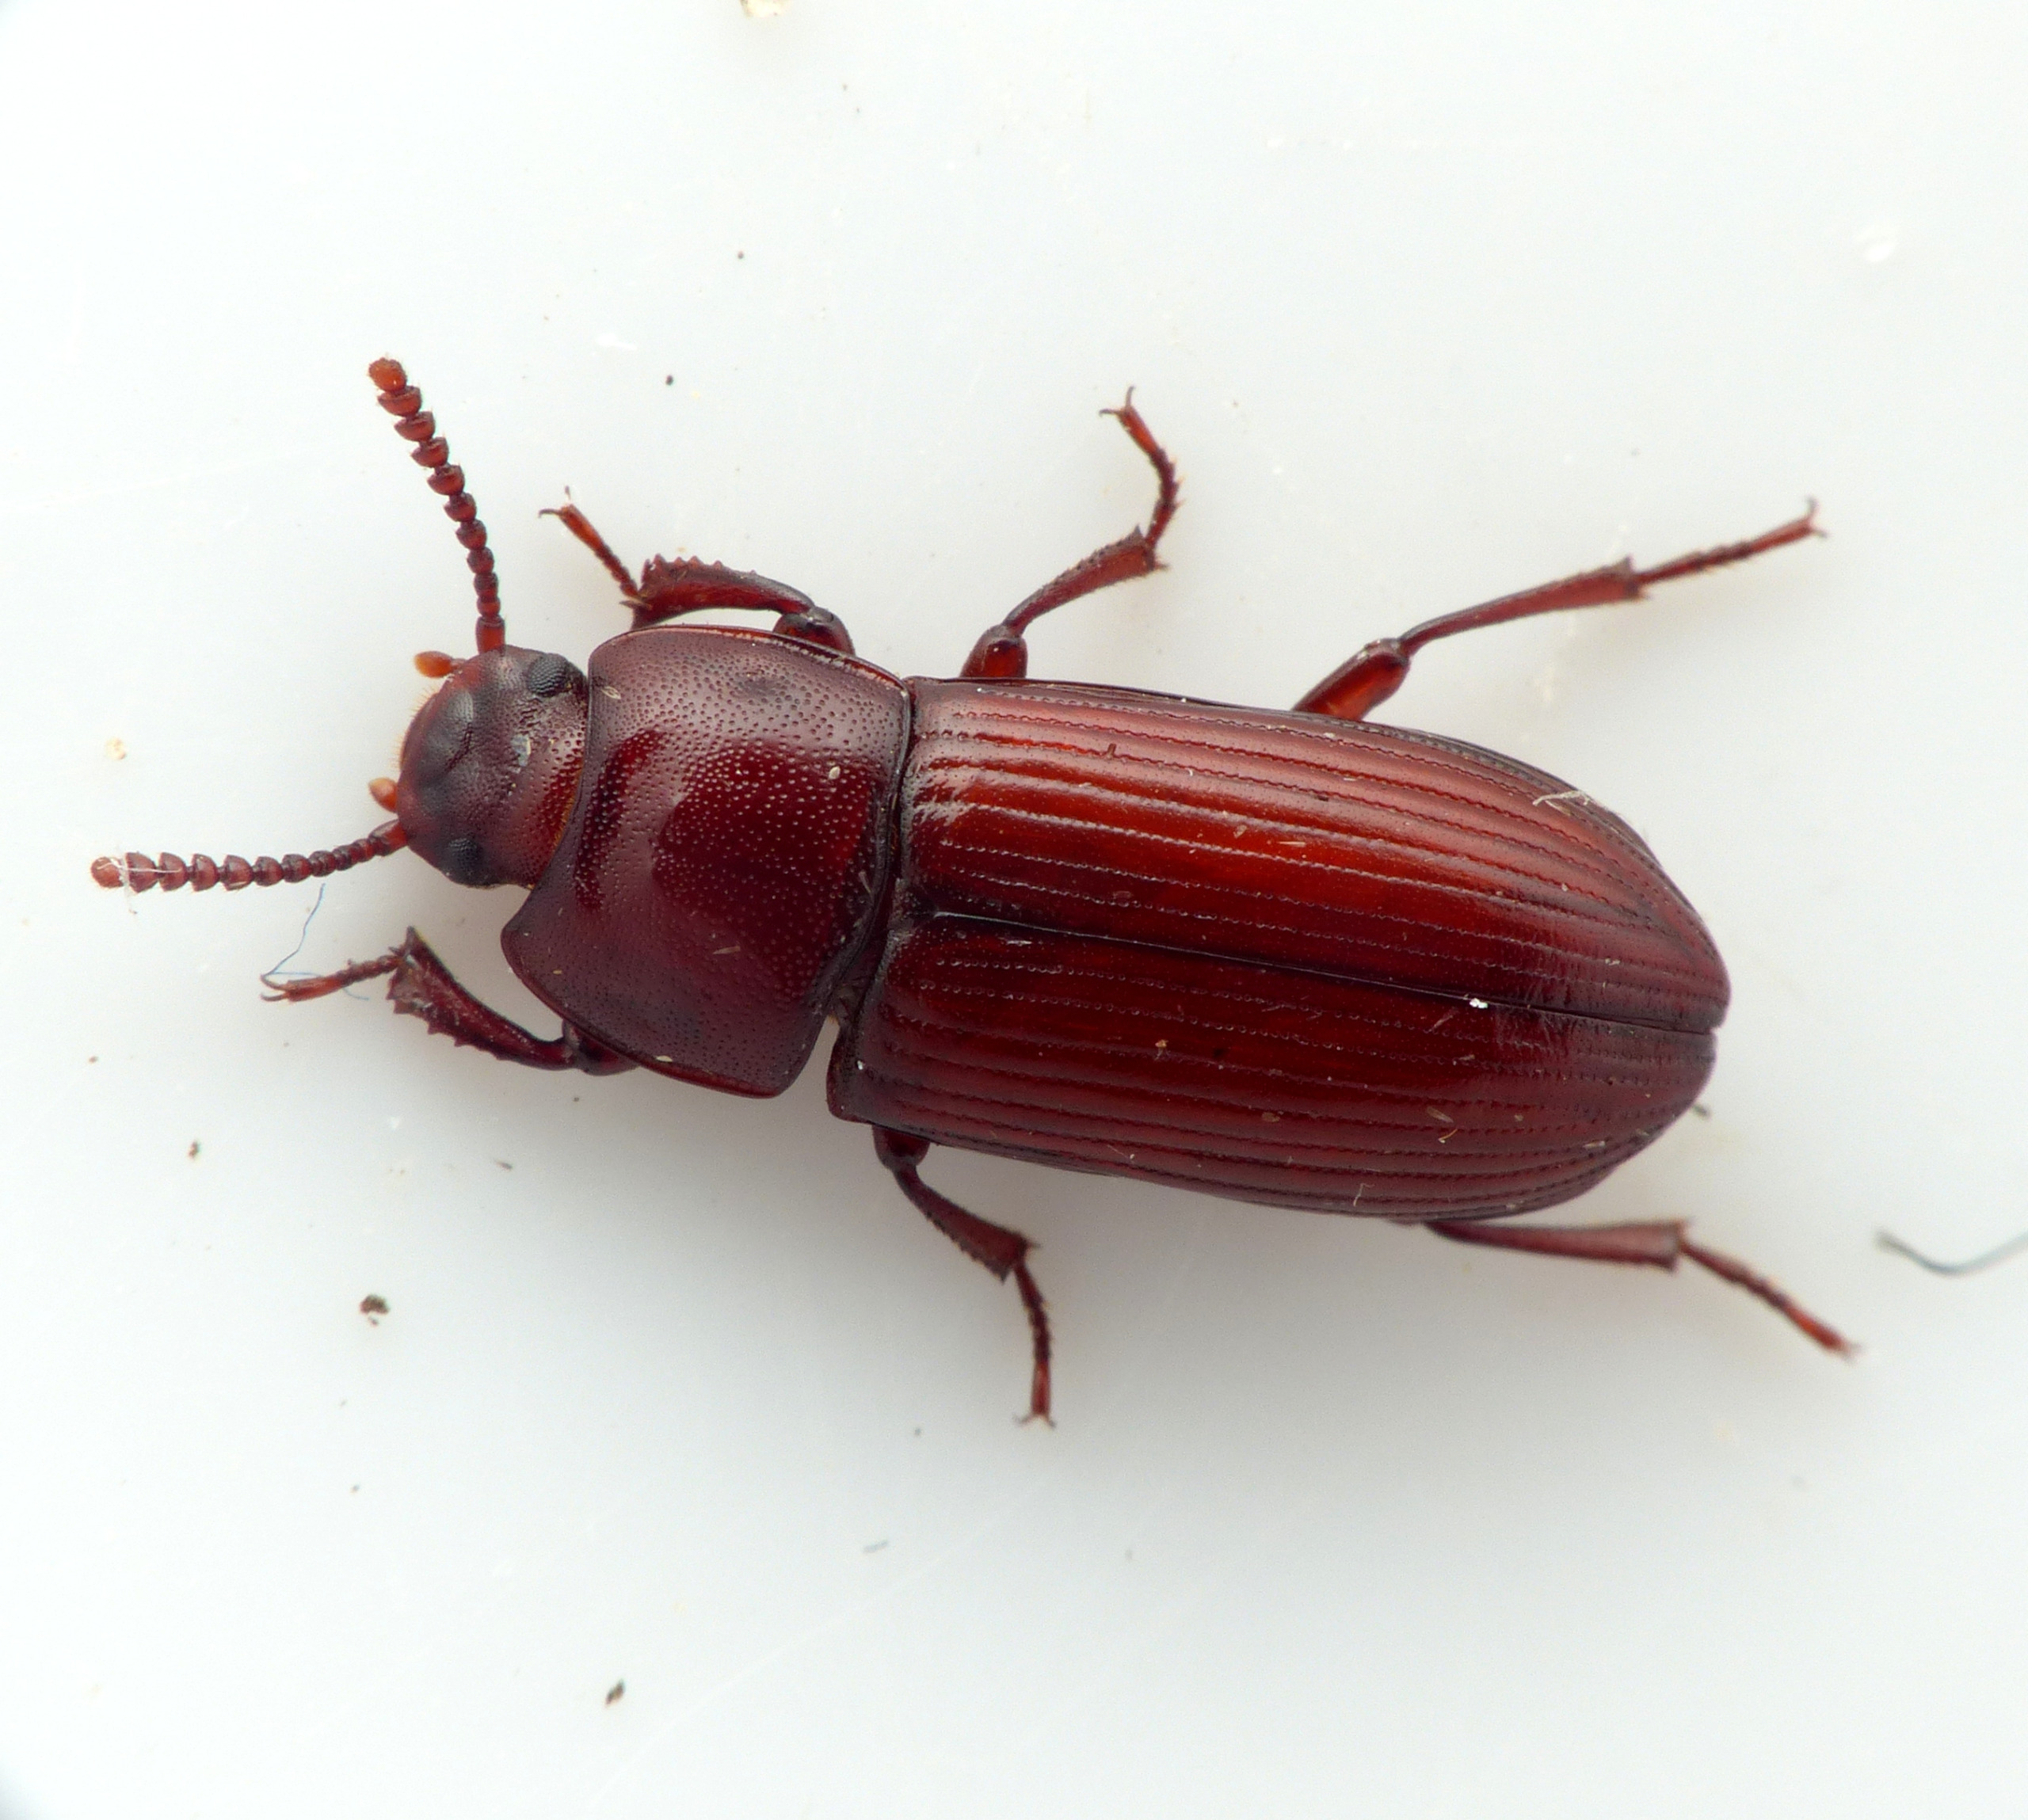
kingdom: Animalia
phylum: Arthropoda
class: Insecta
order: Coleoptera
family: Tenebrionidae
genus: Uloma
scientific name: Uloma culinaris
